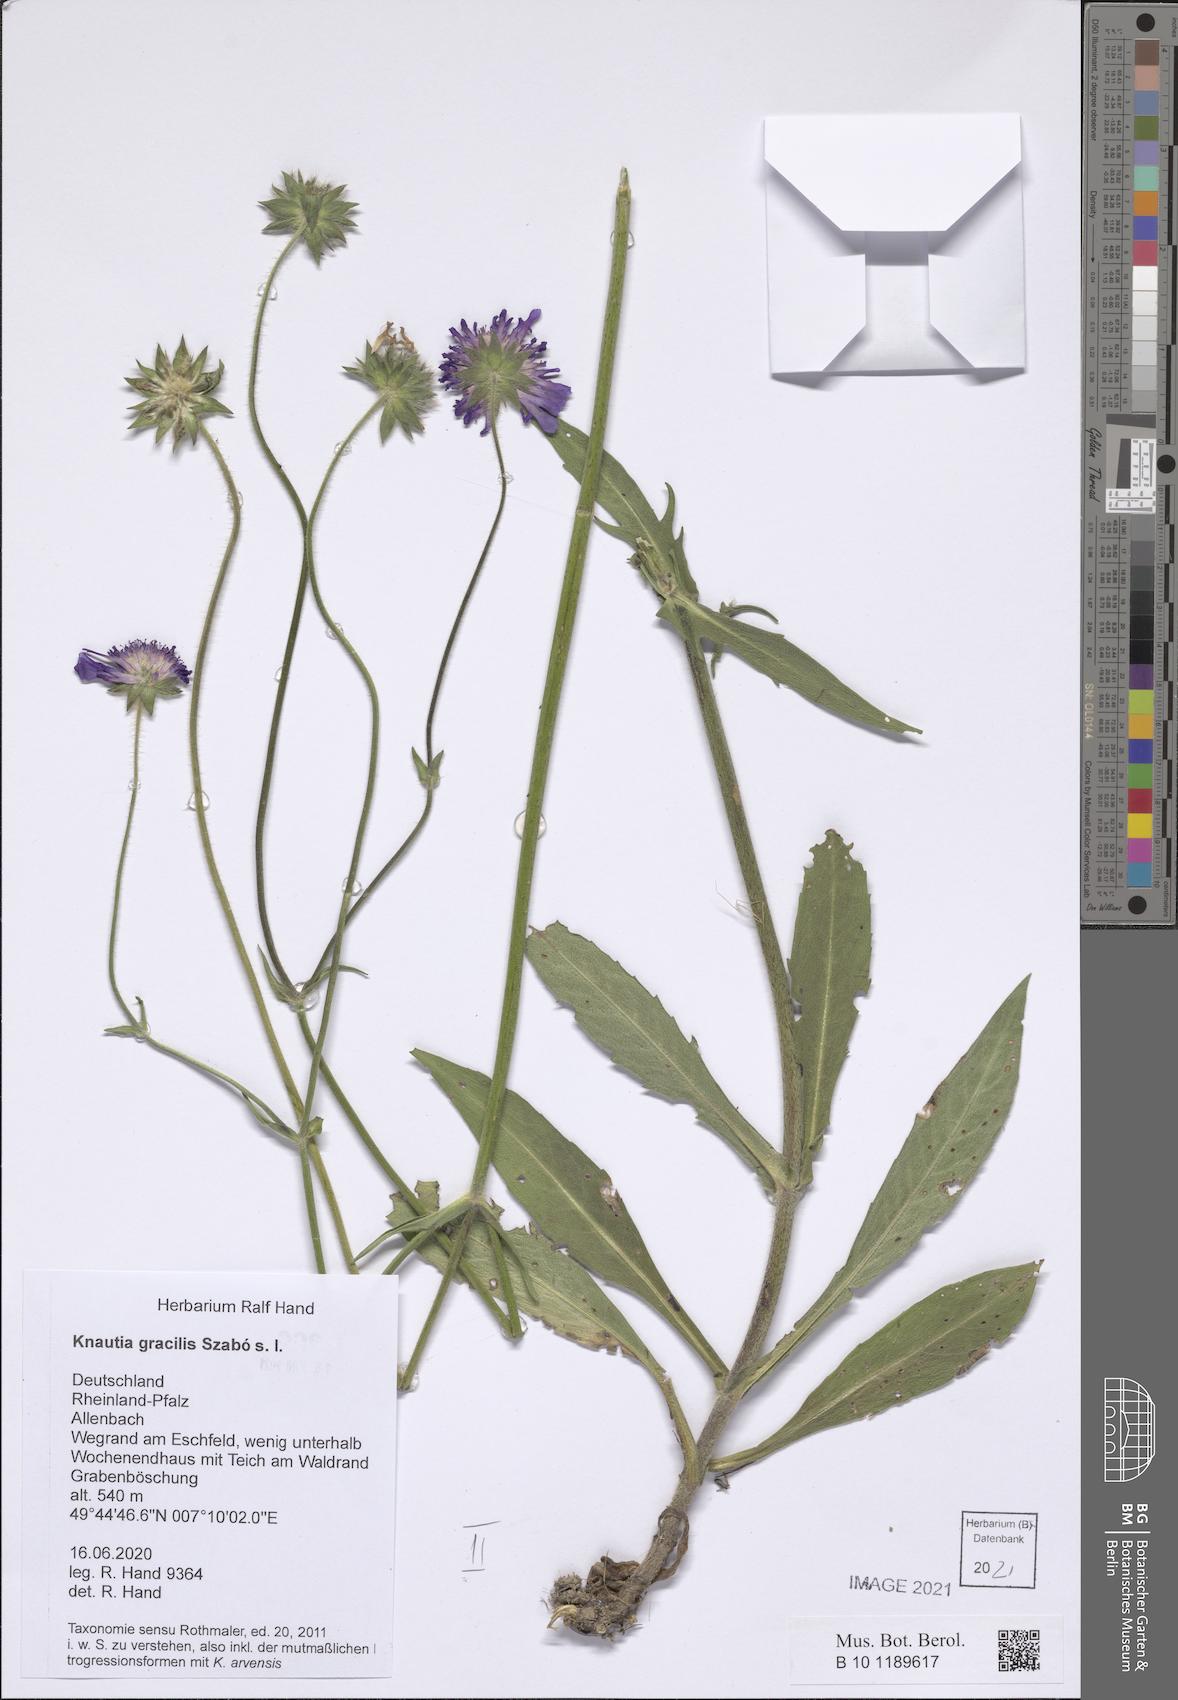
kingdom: Plantae
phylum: Tracheophyta
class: Magnoliopsida
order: Dipsacales
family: Caprifoliaceae
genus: Knautia
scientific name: Knautia gracilis
